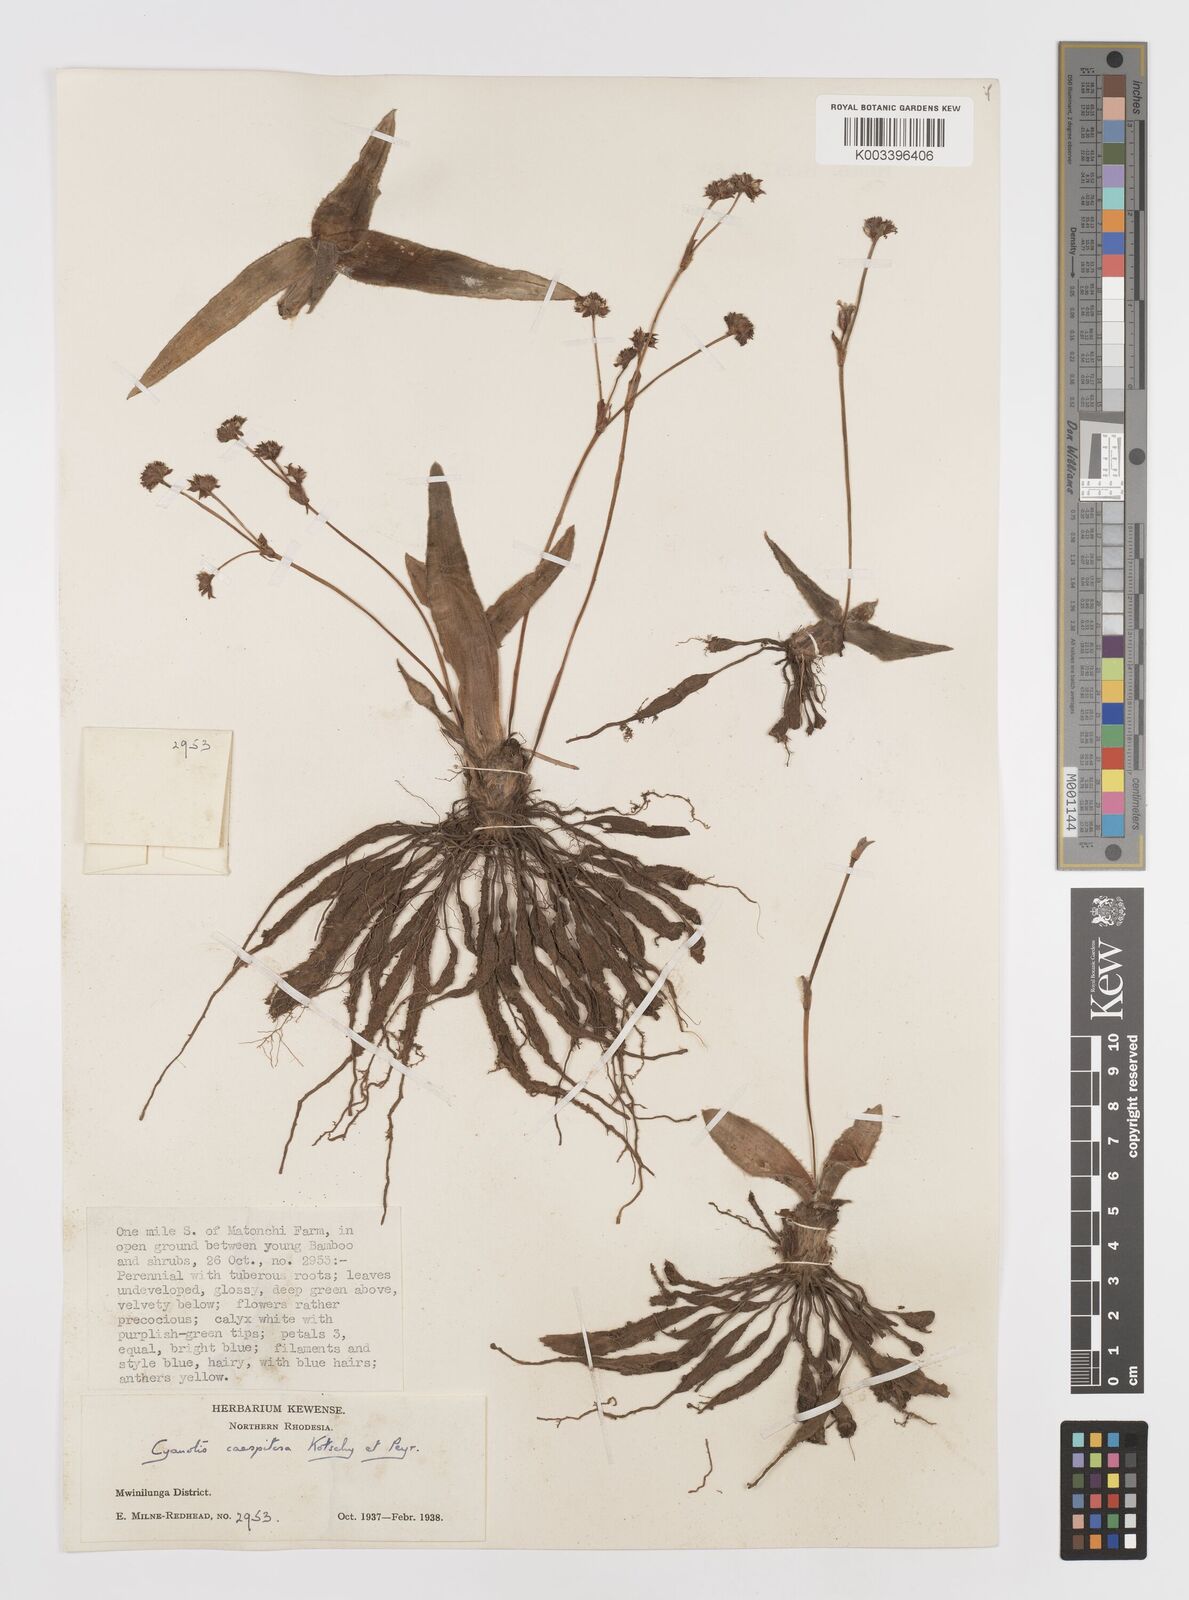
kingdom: Plantae
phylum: Tracheophyta
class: Liliopsida
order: Commelinales
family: Commelinaceae
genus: Cyanotis
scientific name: Cyanotis caespitosa
